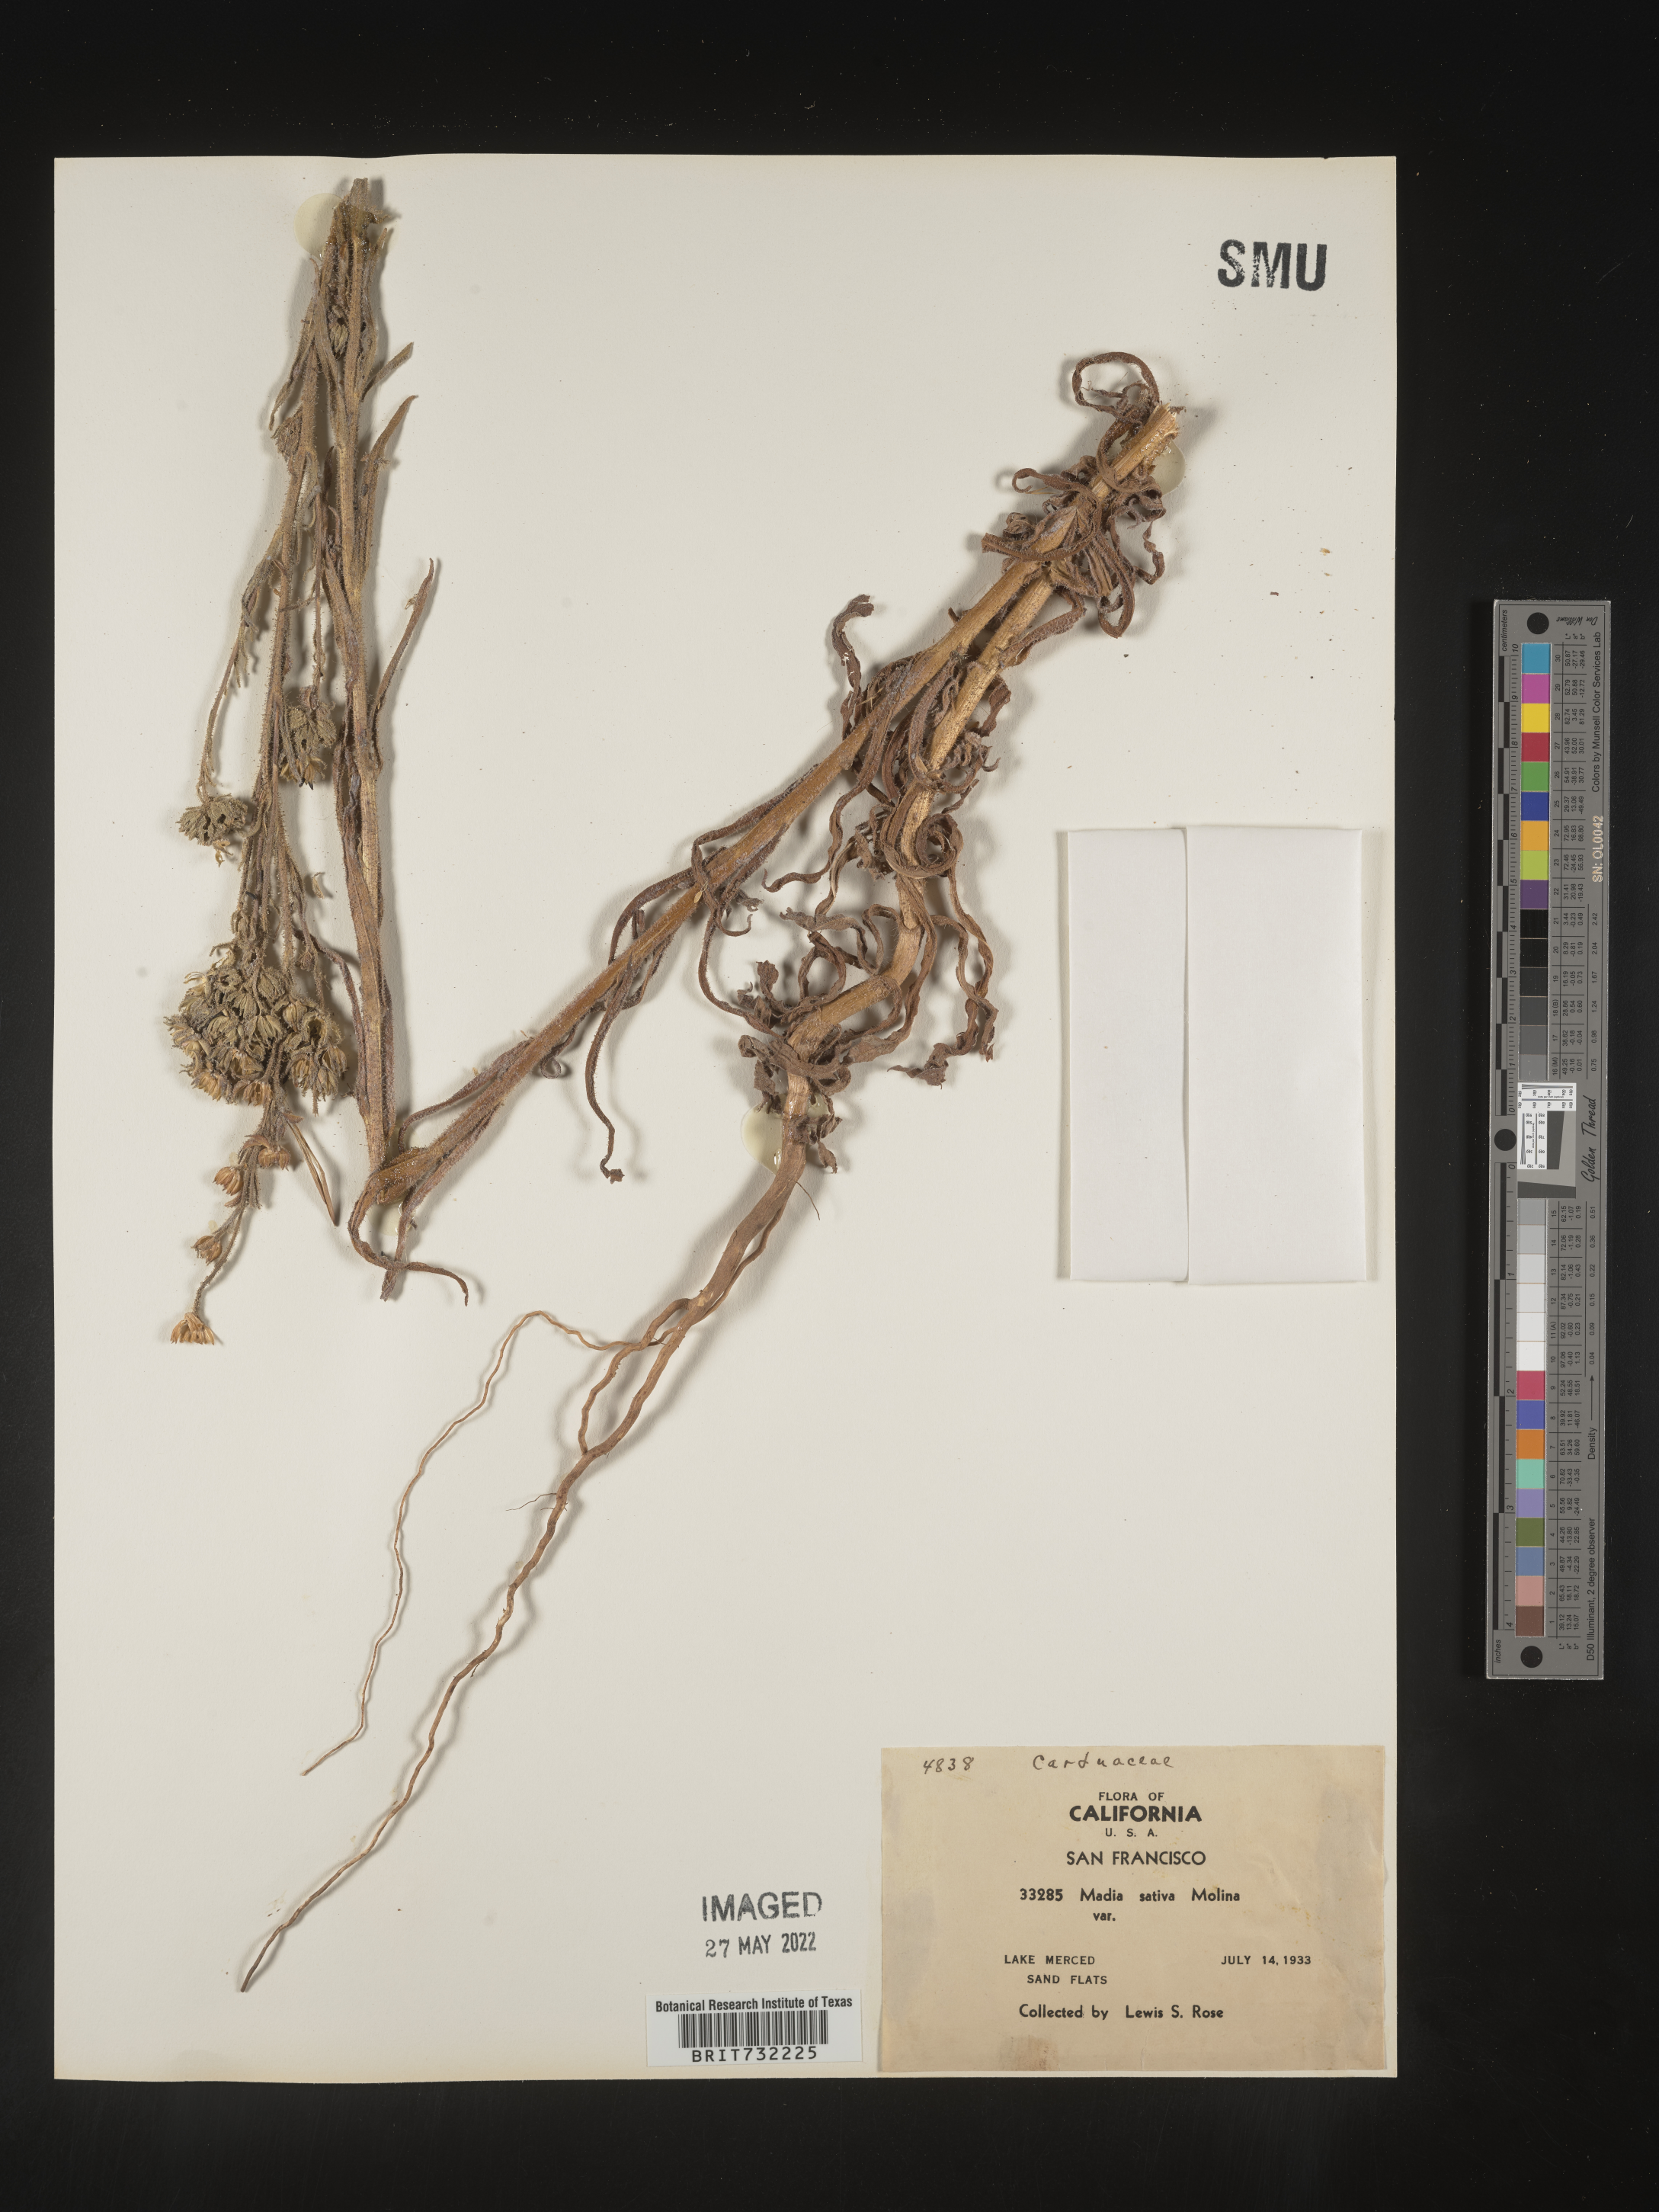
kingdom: Plantae
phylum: Tracheophyta
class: Magnoliopsida
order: Asterales
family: Asteraceae
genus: Madia
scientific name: Madia
